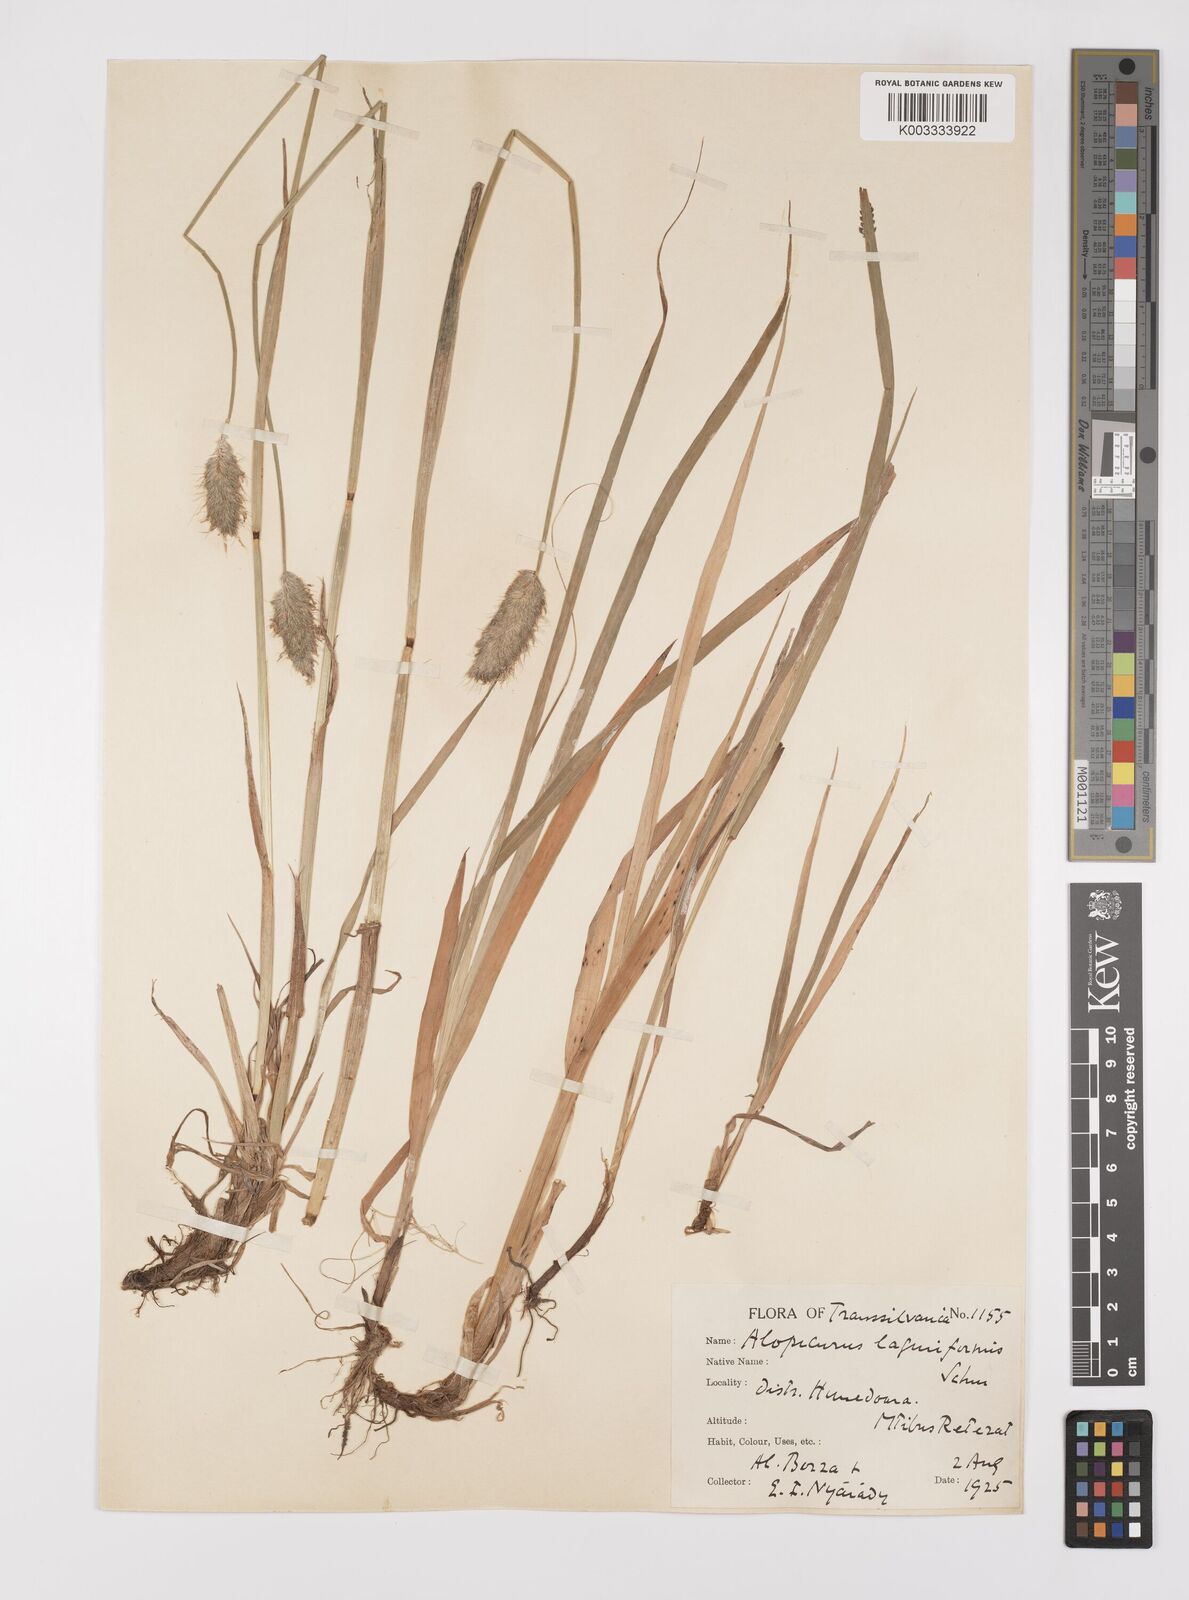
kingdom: Plantae
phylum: Tracheophyta
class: Liliopsida
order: Poales
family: Poaceae
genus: Alopecurus
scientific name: Alopecurus pratensis
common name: Meadow foxtail
